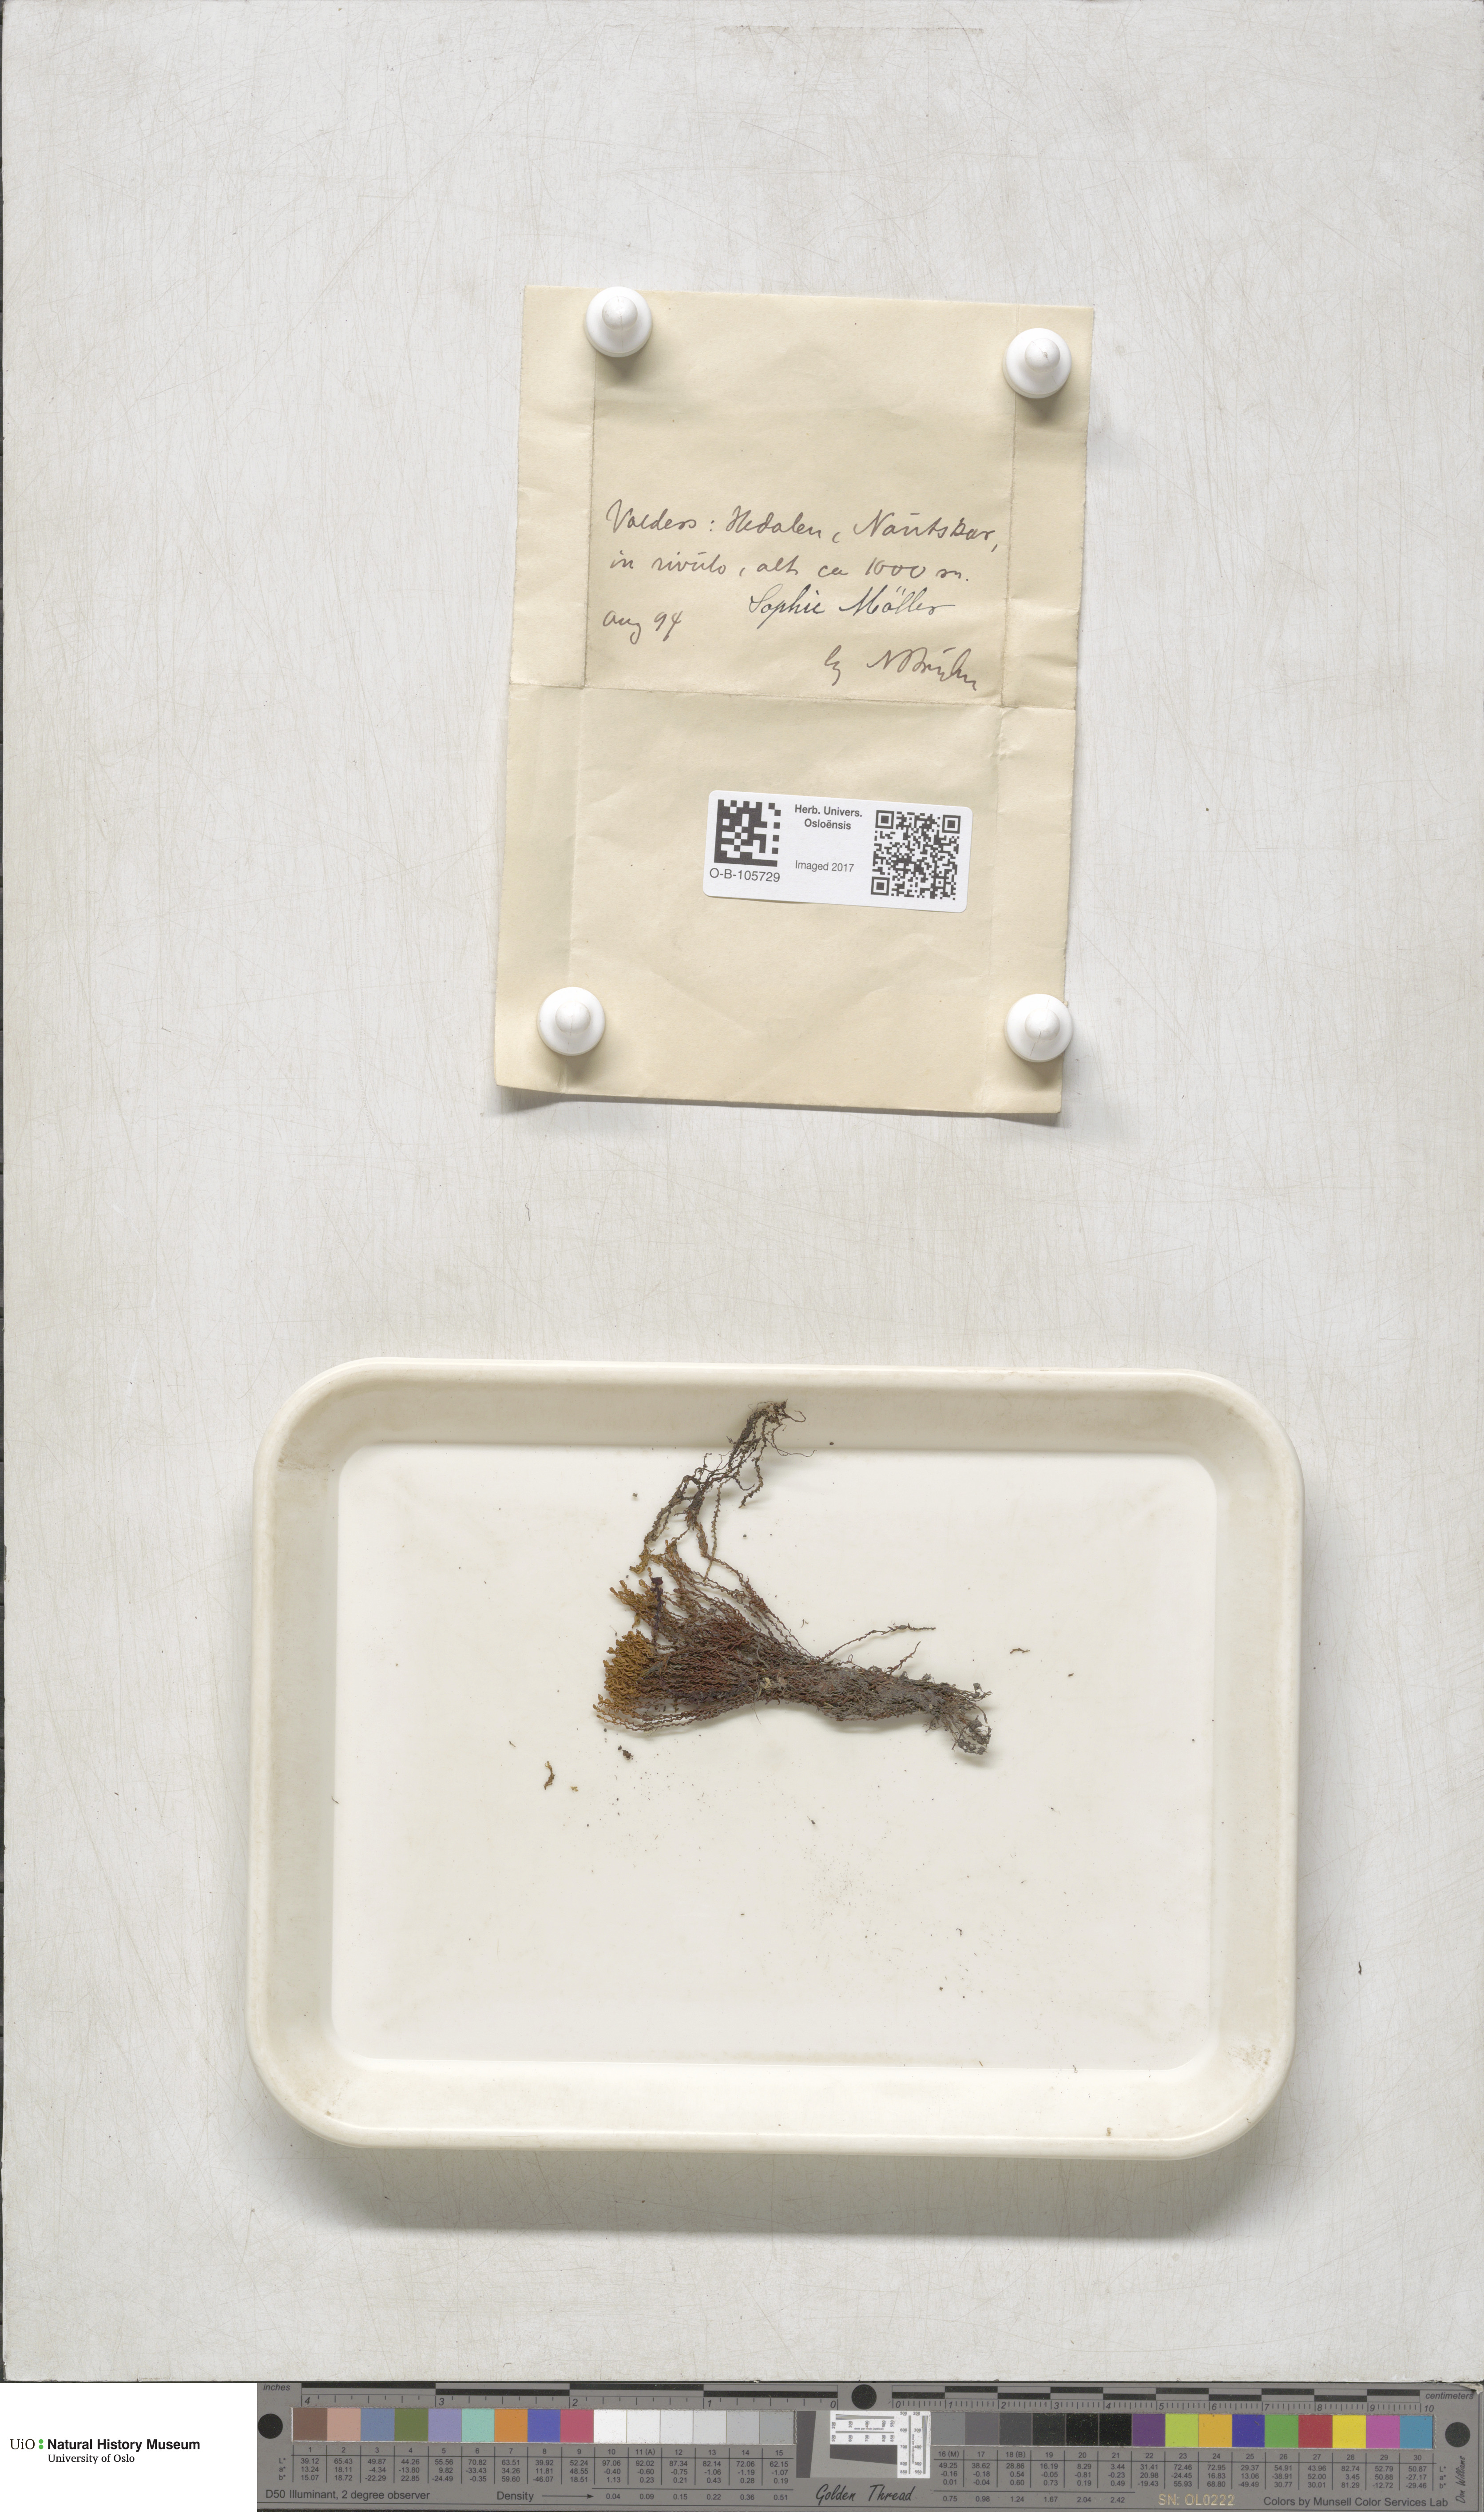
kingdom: Plantae
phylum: Bryophyta
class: Polytrichopsida
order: Polytrichales
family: Polytrichaceae
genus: Oligotrichum
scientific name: Oligotrichum hercynicum
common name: Hercynian hair moss
